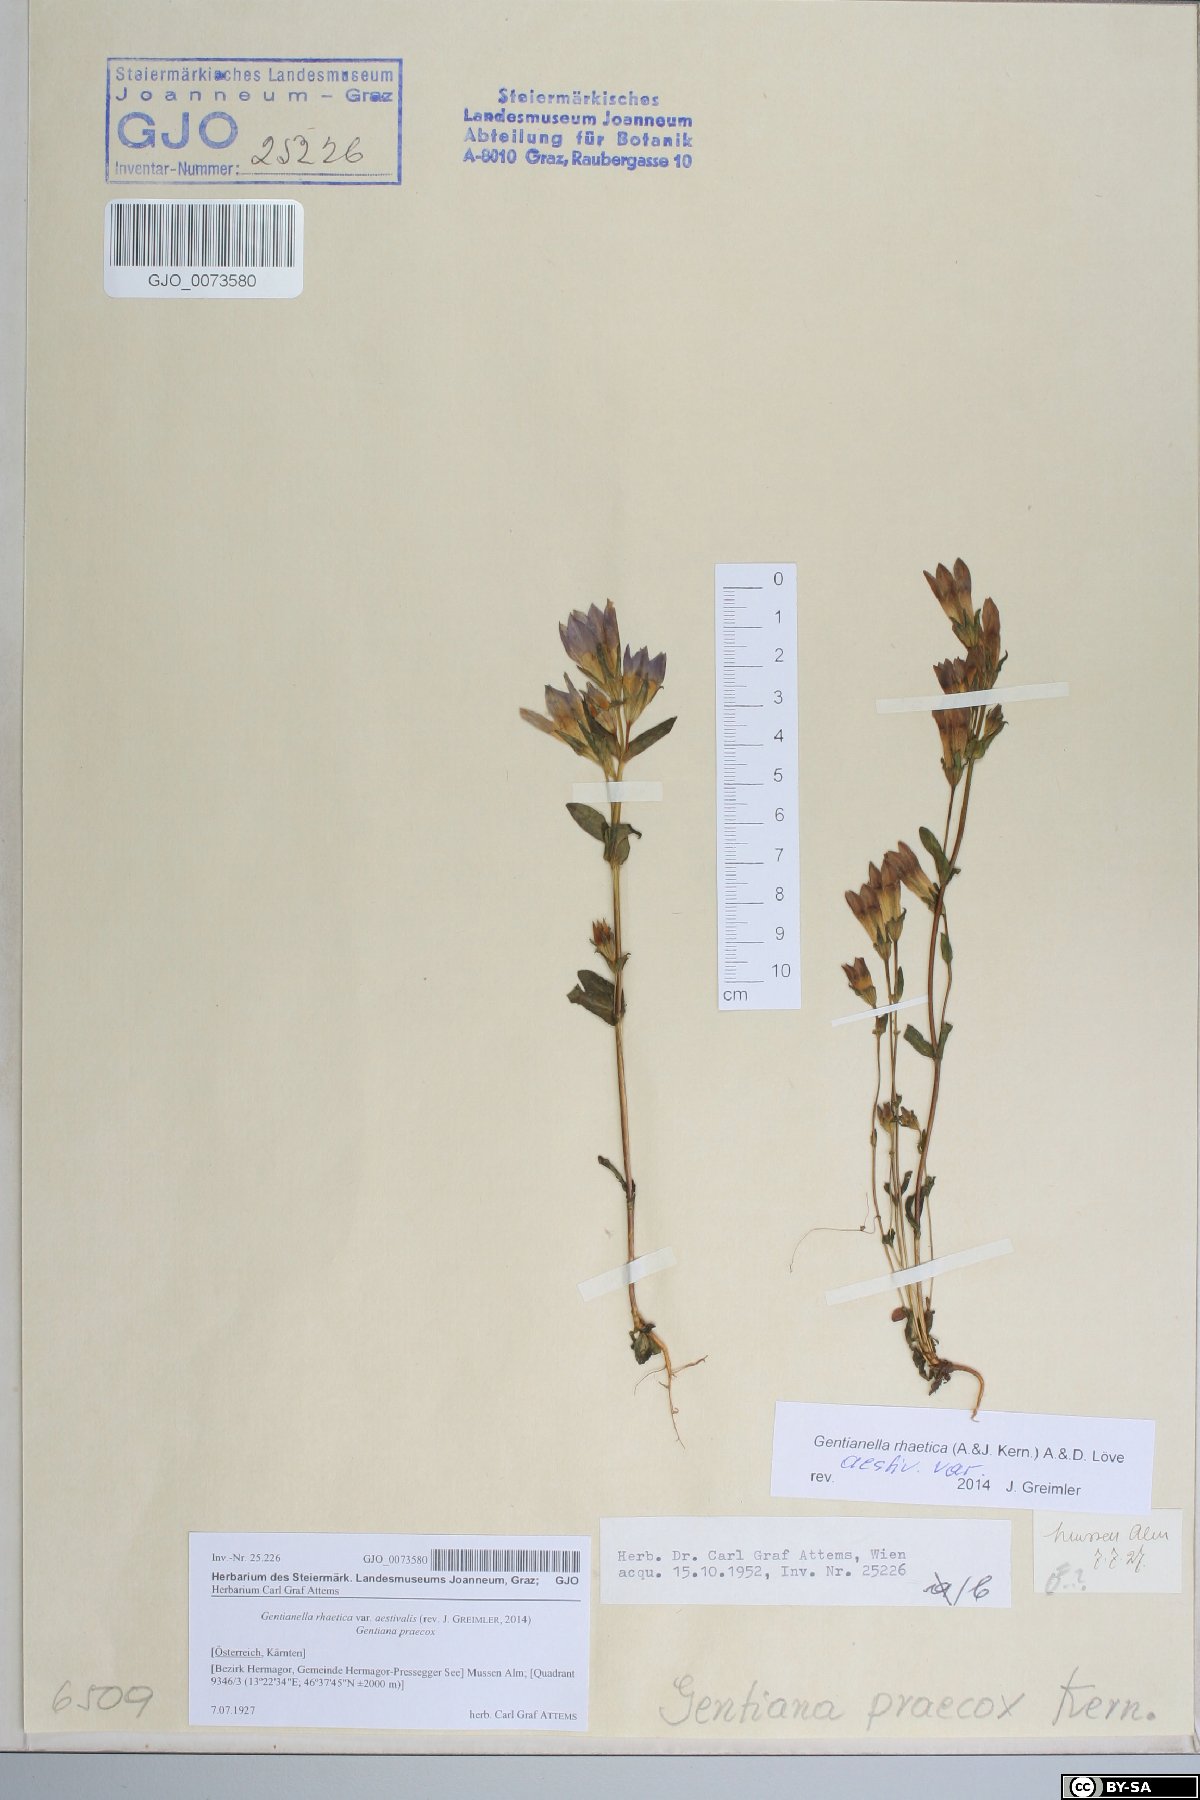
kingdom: Plantae
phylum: Tracheophyta
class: Magnoliopsida
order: Gentianales
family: Gentianaceae
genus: Gentianella
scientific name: Gentianella rhaetica
